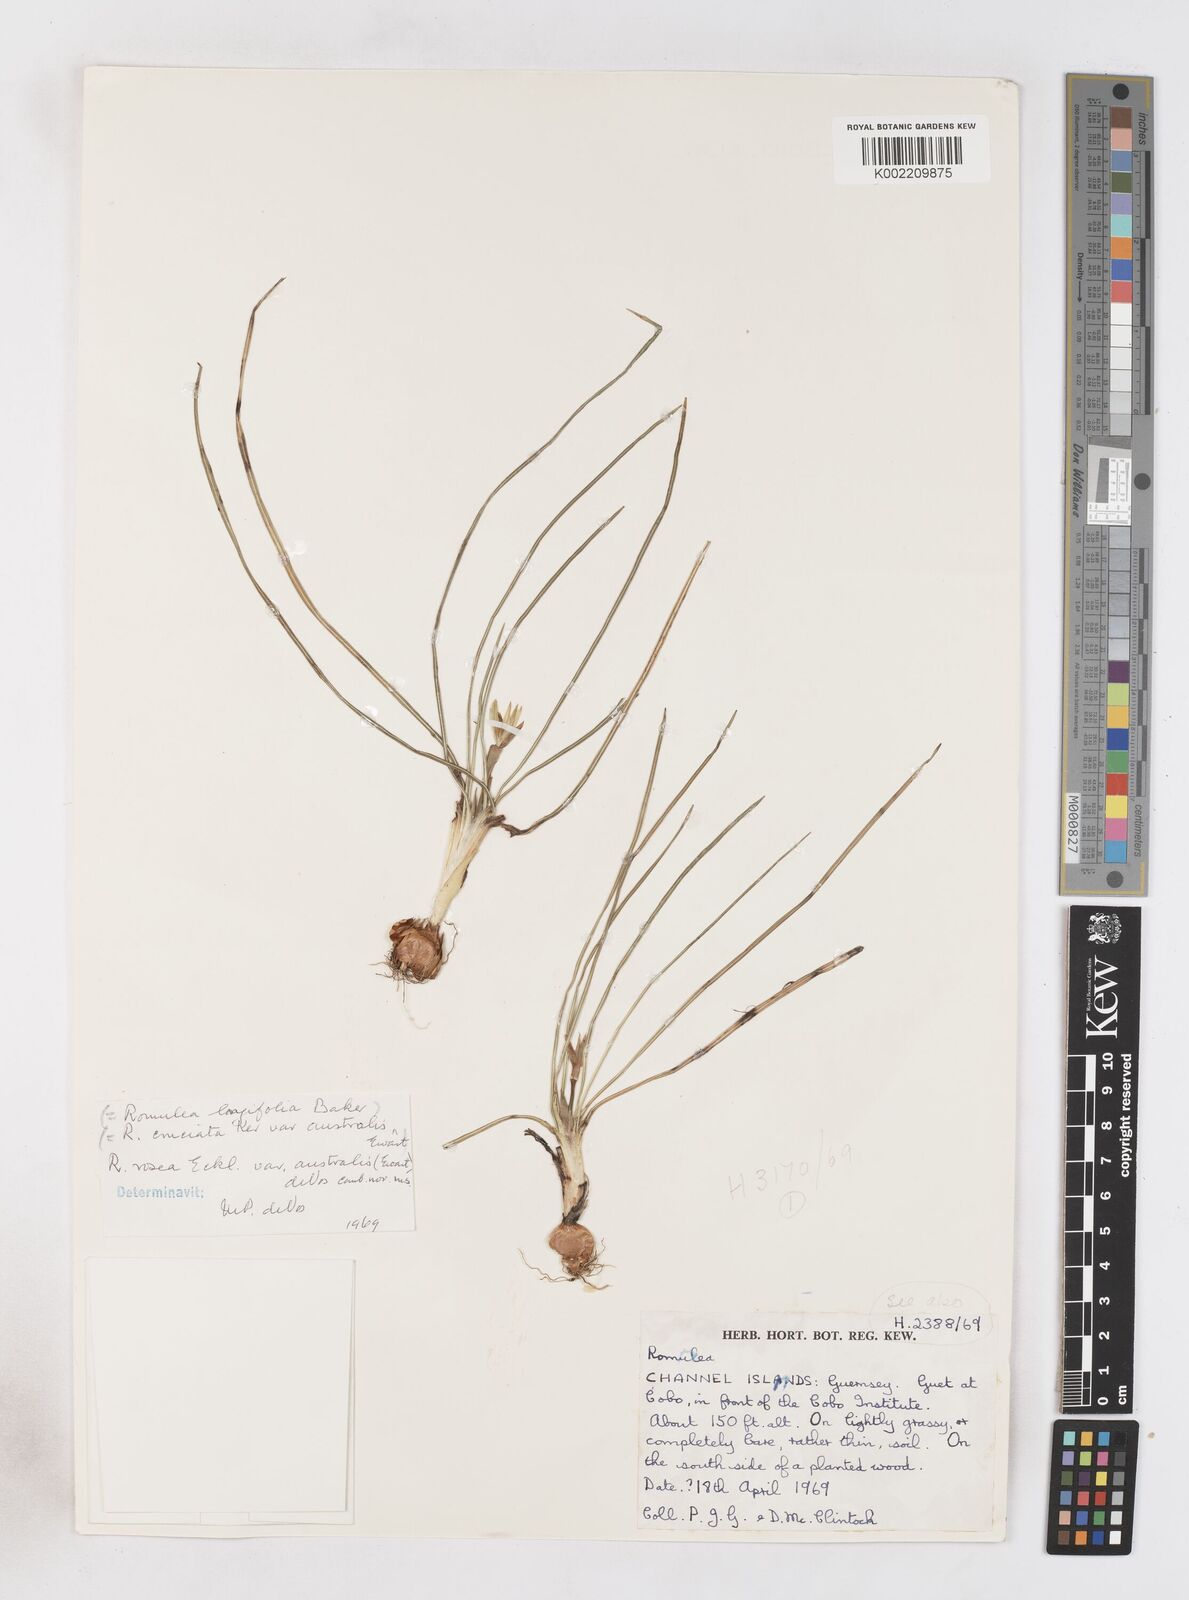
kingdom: Plantae
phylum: Tracheophyta
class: Liliopsida
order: Asparagales
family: Iridaceae
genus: Romulea
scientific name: Romulea rosea
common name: Oniongrass
